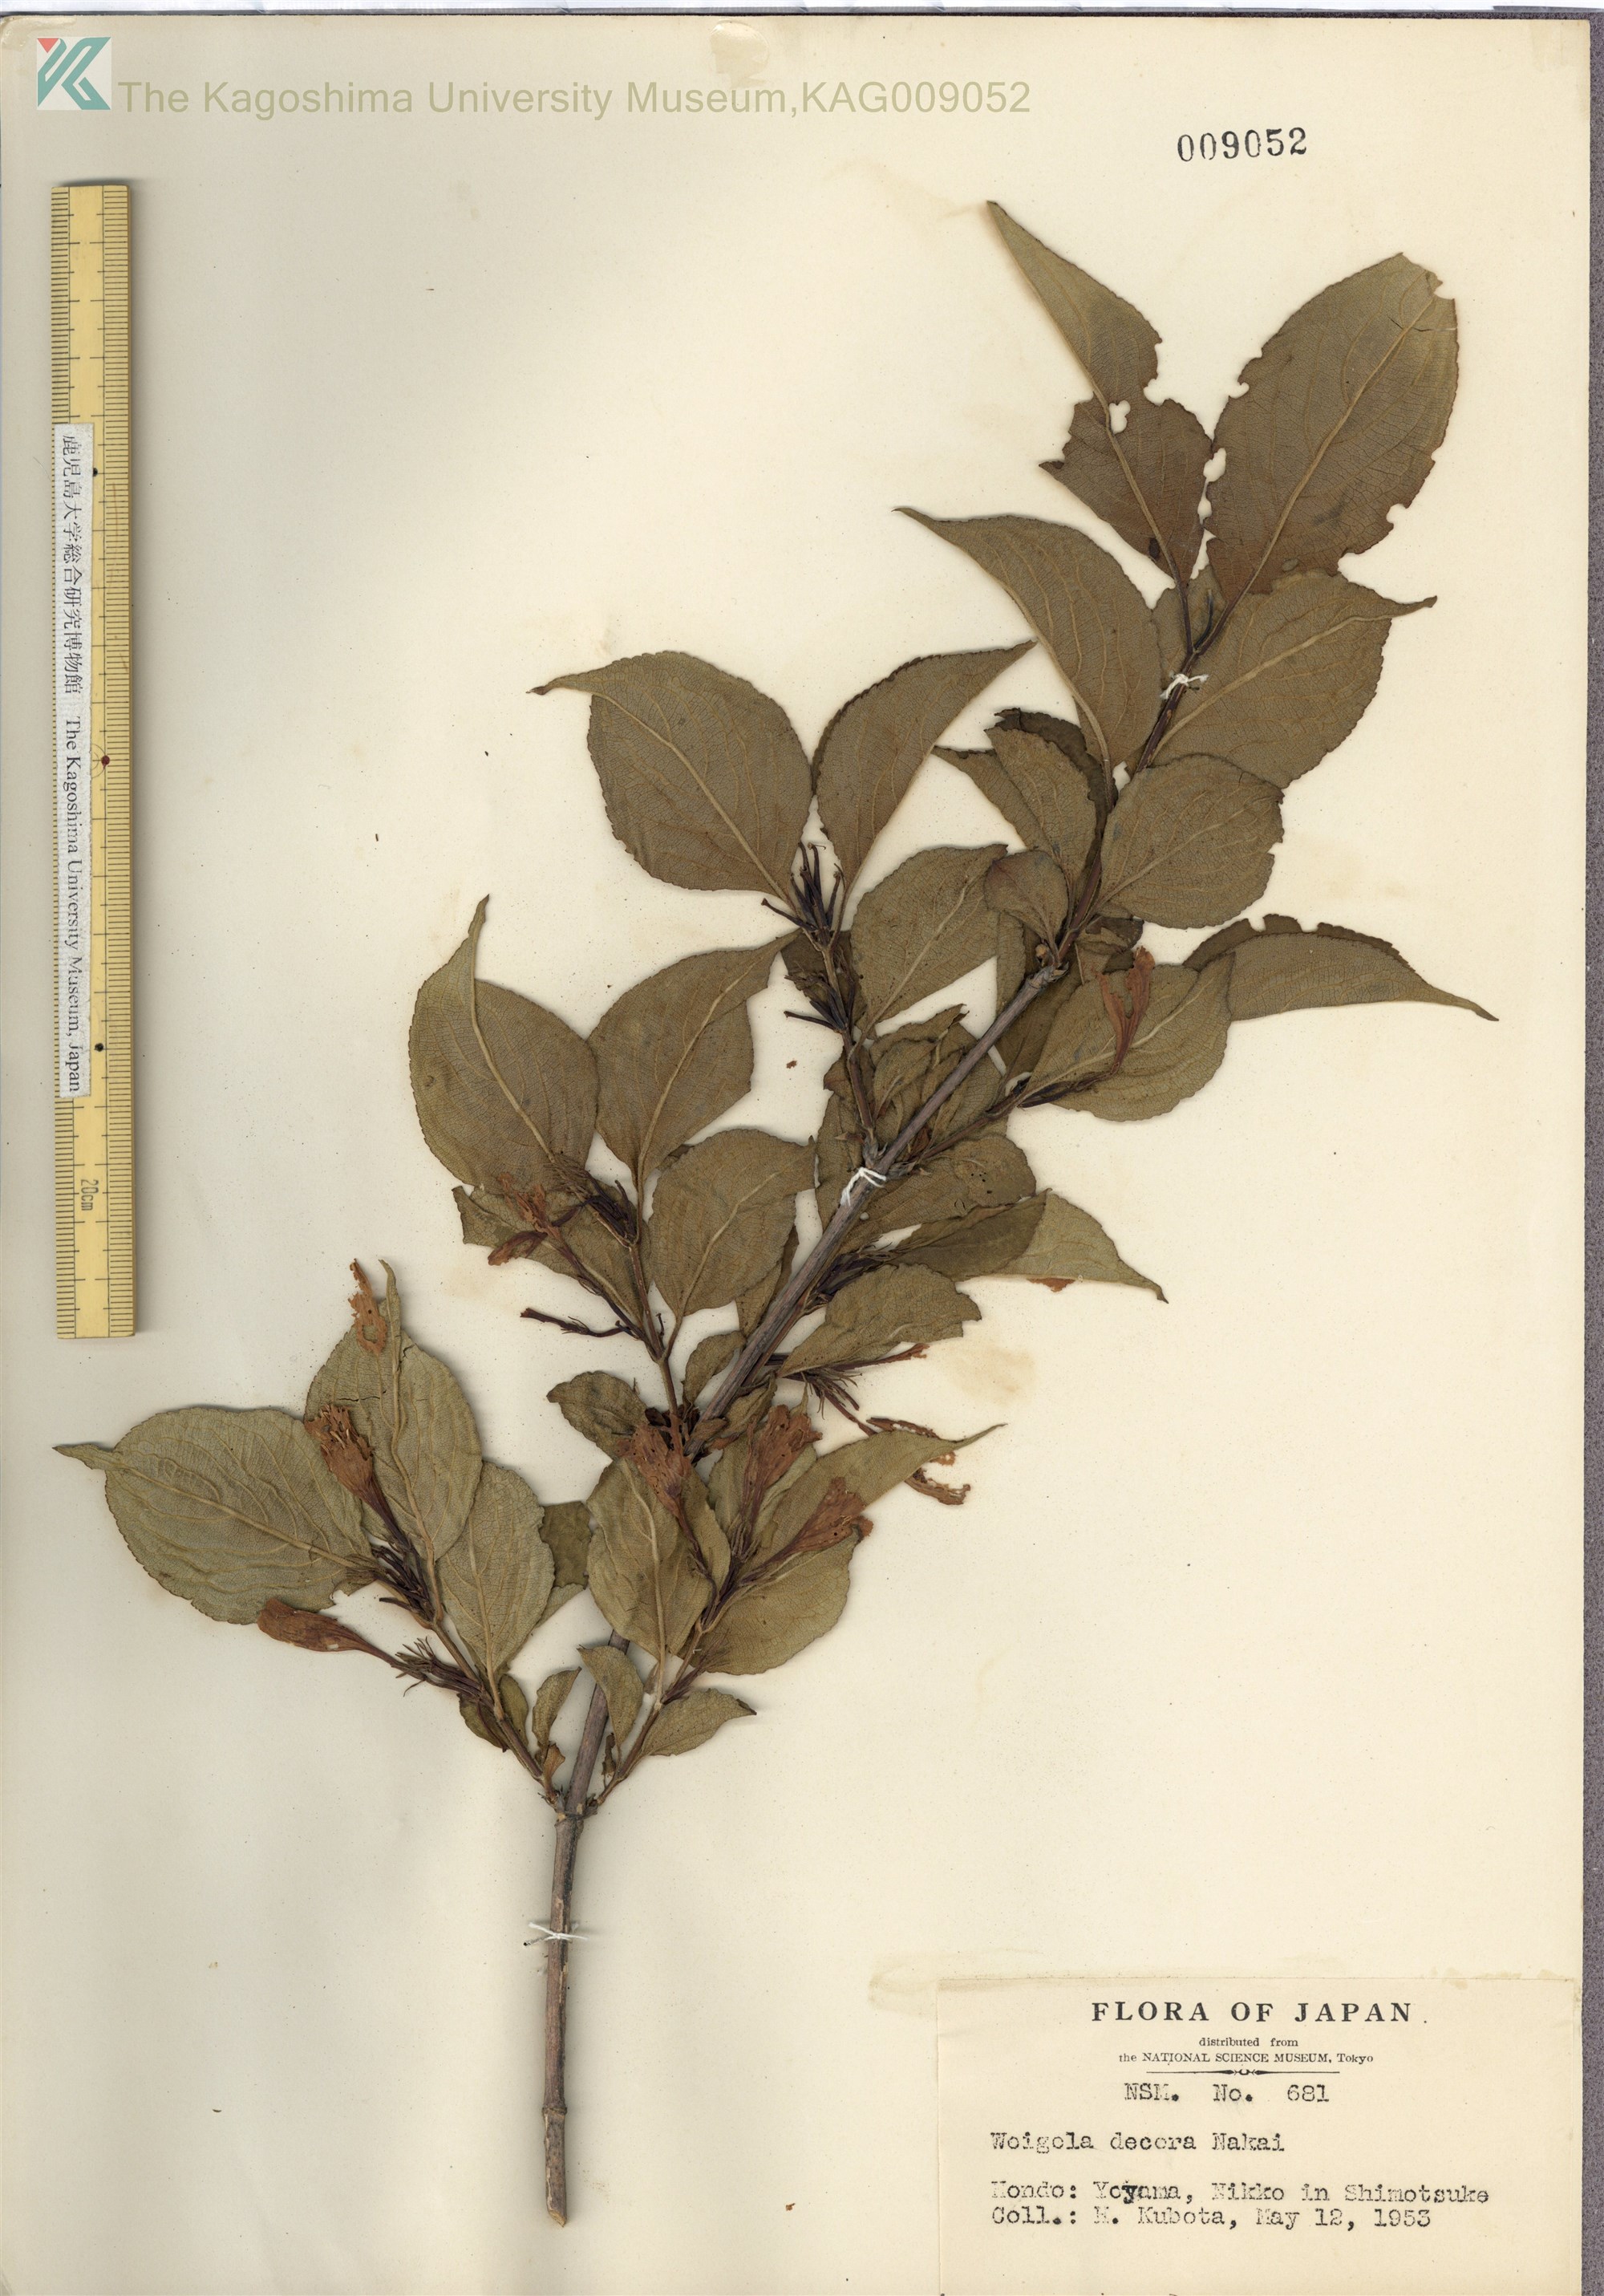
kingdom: Plantae
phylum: Tracheophyta
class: Magnoliopsida
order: Dipsacales
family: Caprifoliaceae
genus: Weigela
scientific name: Weigela decora
